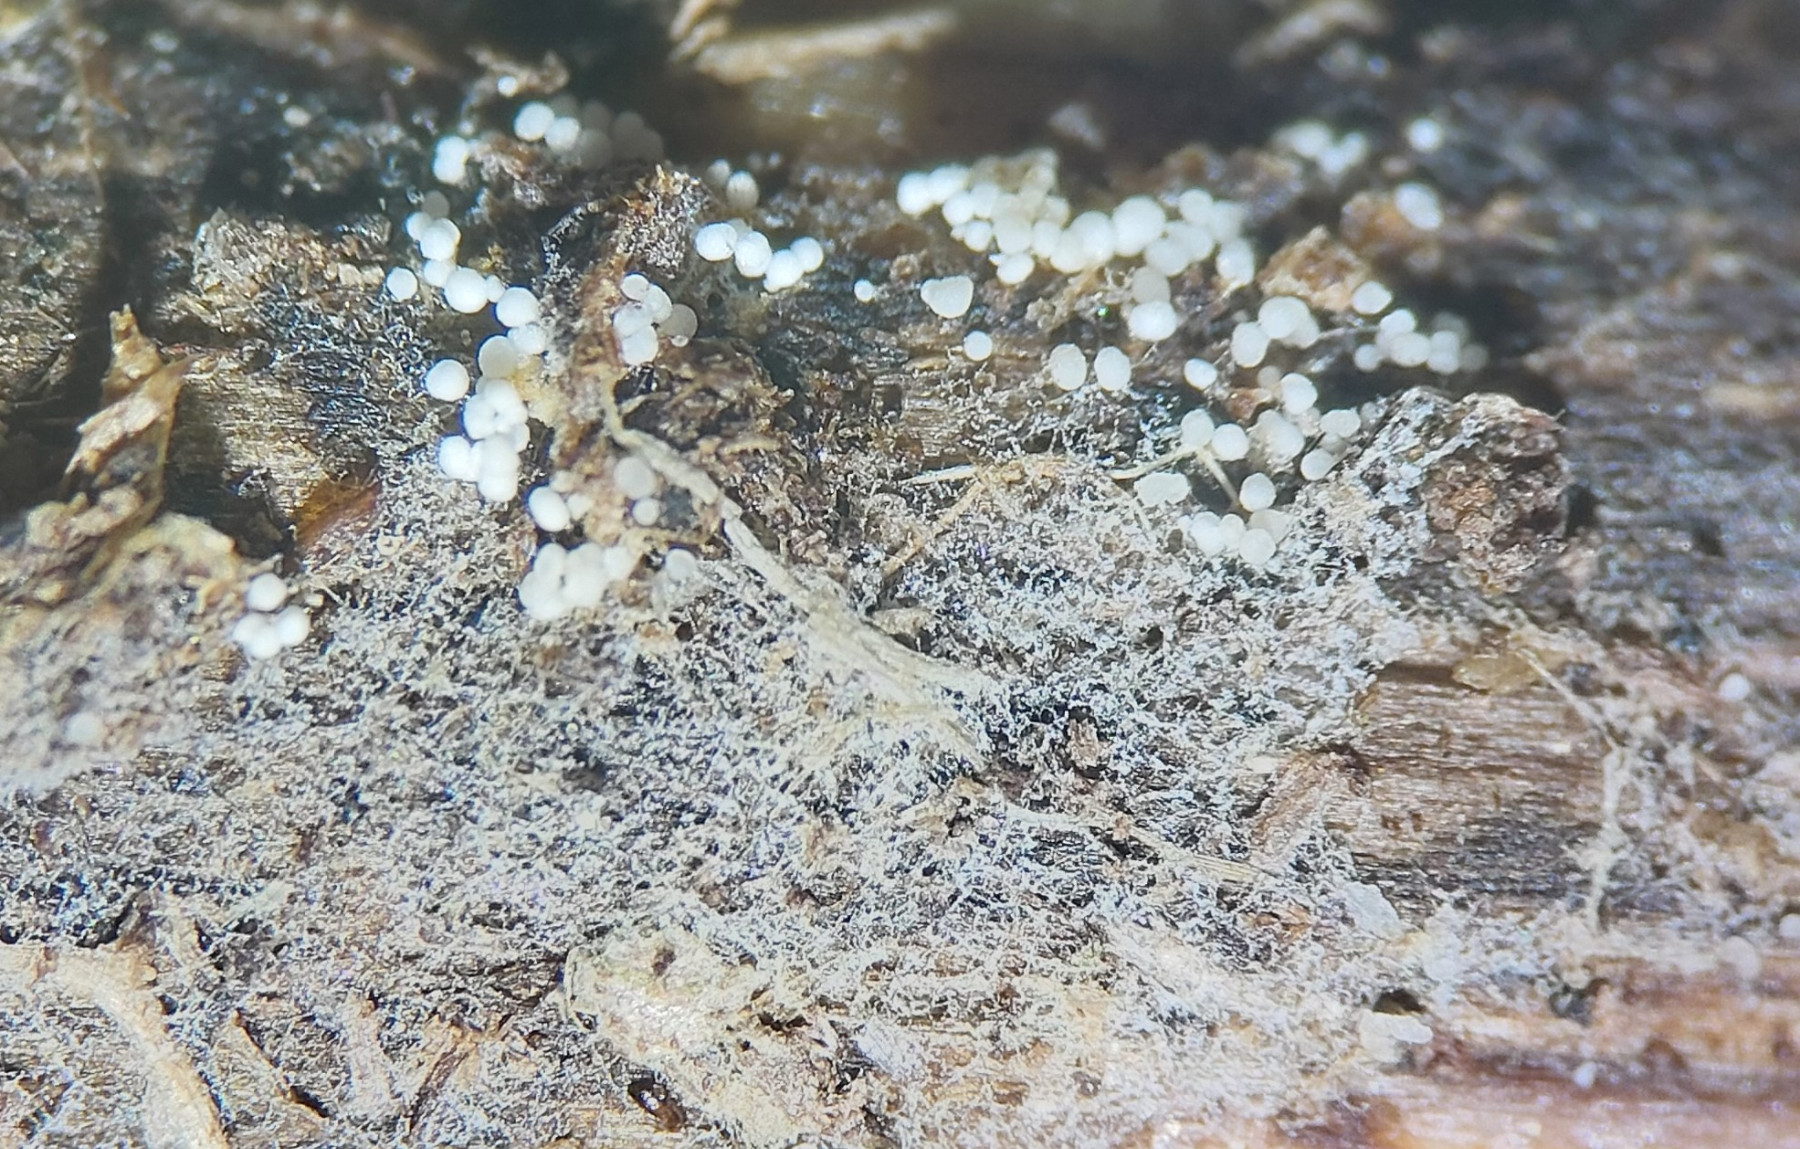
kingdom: Fungi
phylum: Basidiomycota
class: Agaricomycetes
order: Polyporales
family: Meruliaceae
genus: Bulbillomyces
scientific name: Bulbillomyces farinosus
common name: æg-kalkskind
